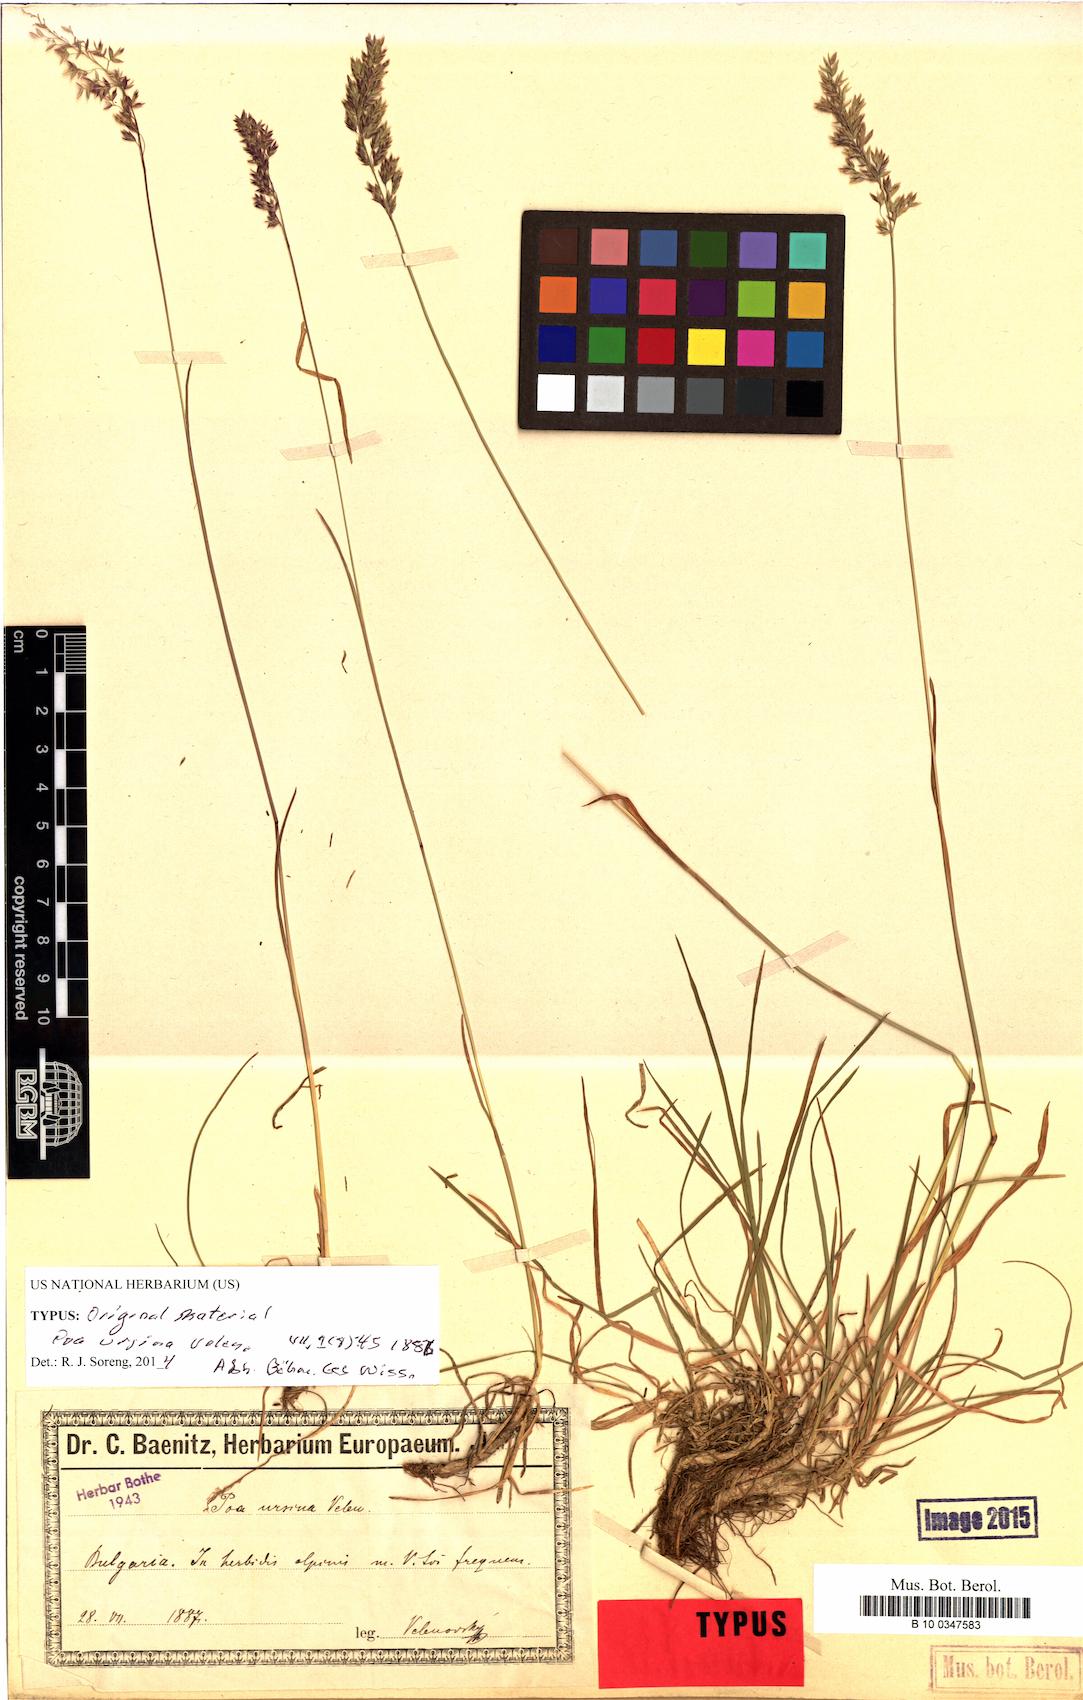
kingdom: Plantae
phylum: Tracheophyta
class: Liliopsida
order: Poales
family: Poaceae
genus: Poa
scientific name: Poa ursina
